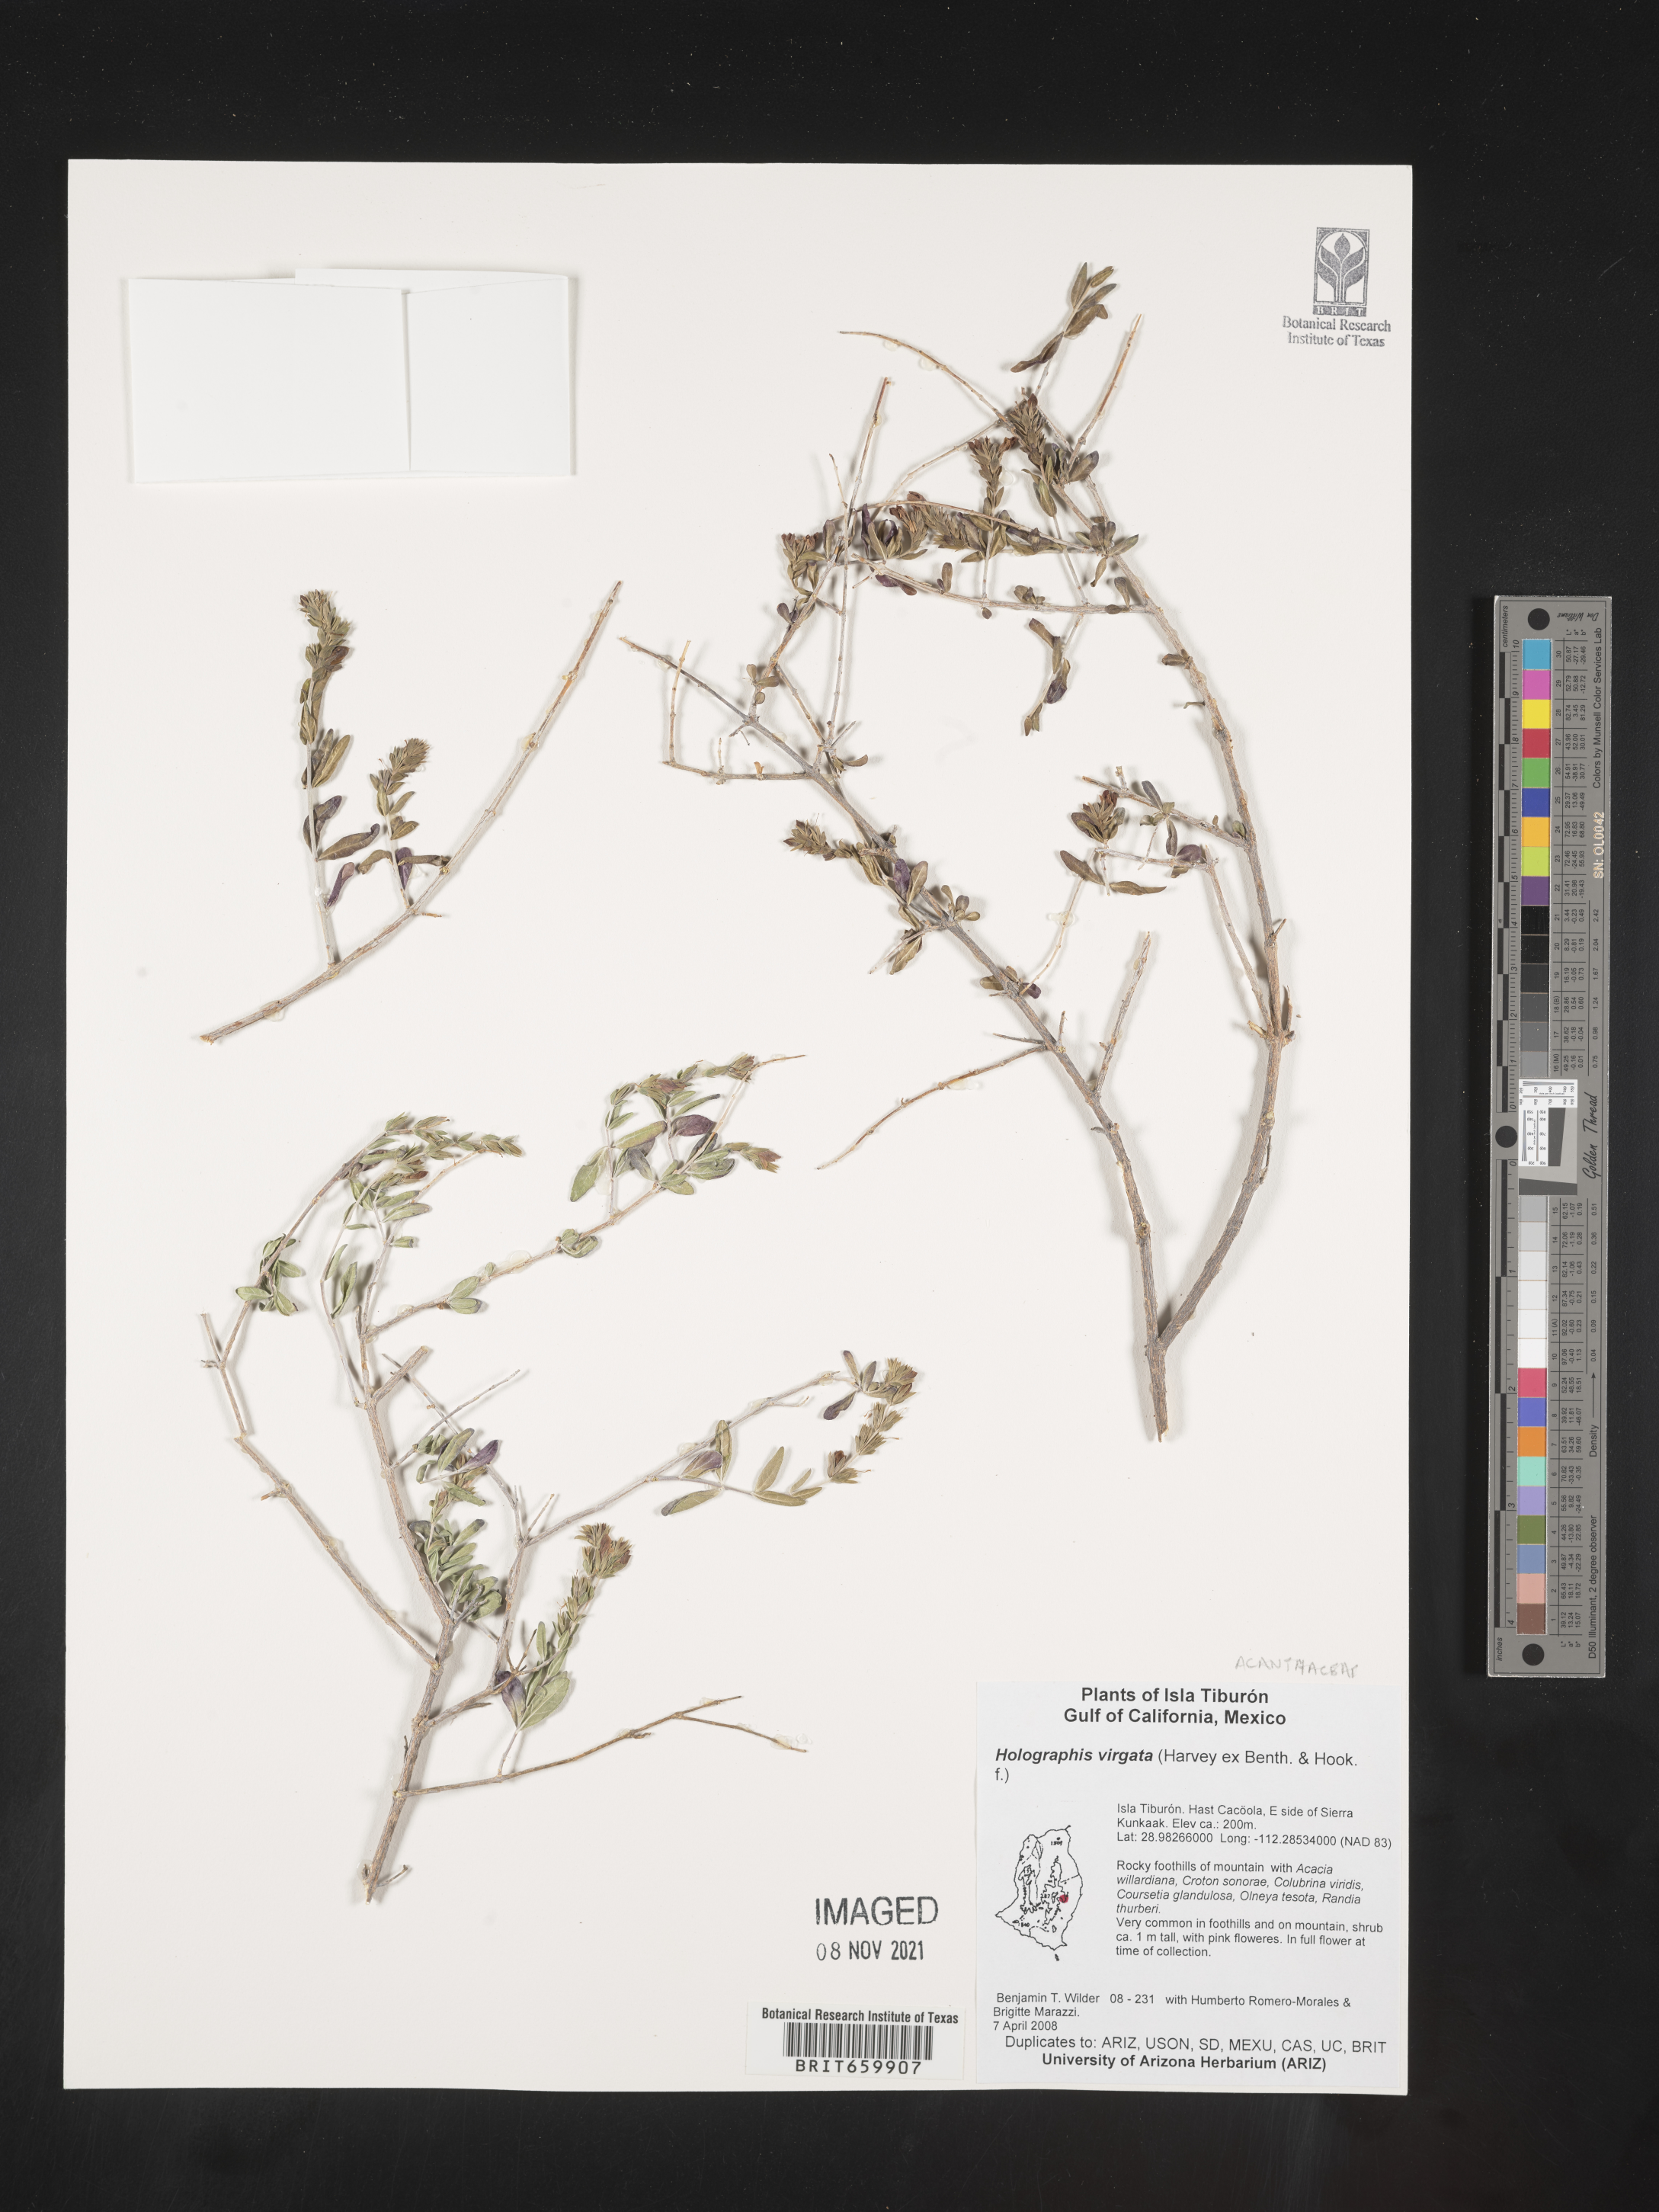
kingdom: Plantae
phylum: Tracheophyta
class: Magnoliopsida
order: Lamiales
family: Acanthaceae
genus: Holographis
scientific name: Holographis
